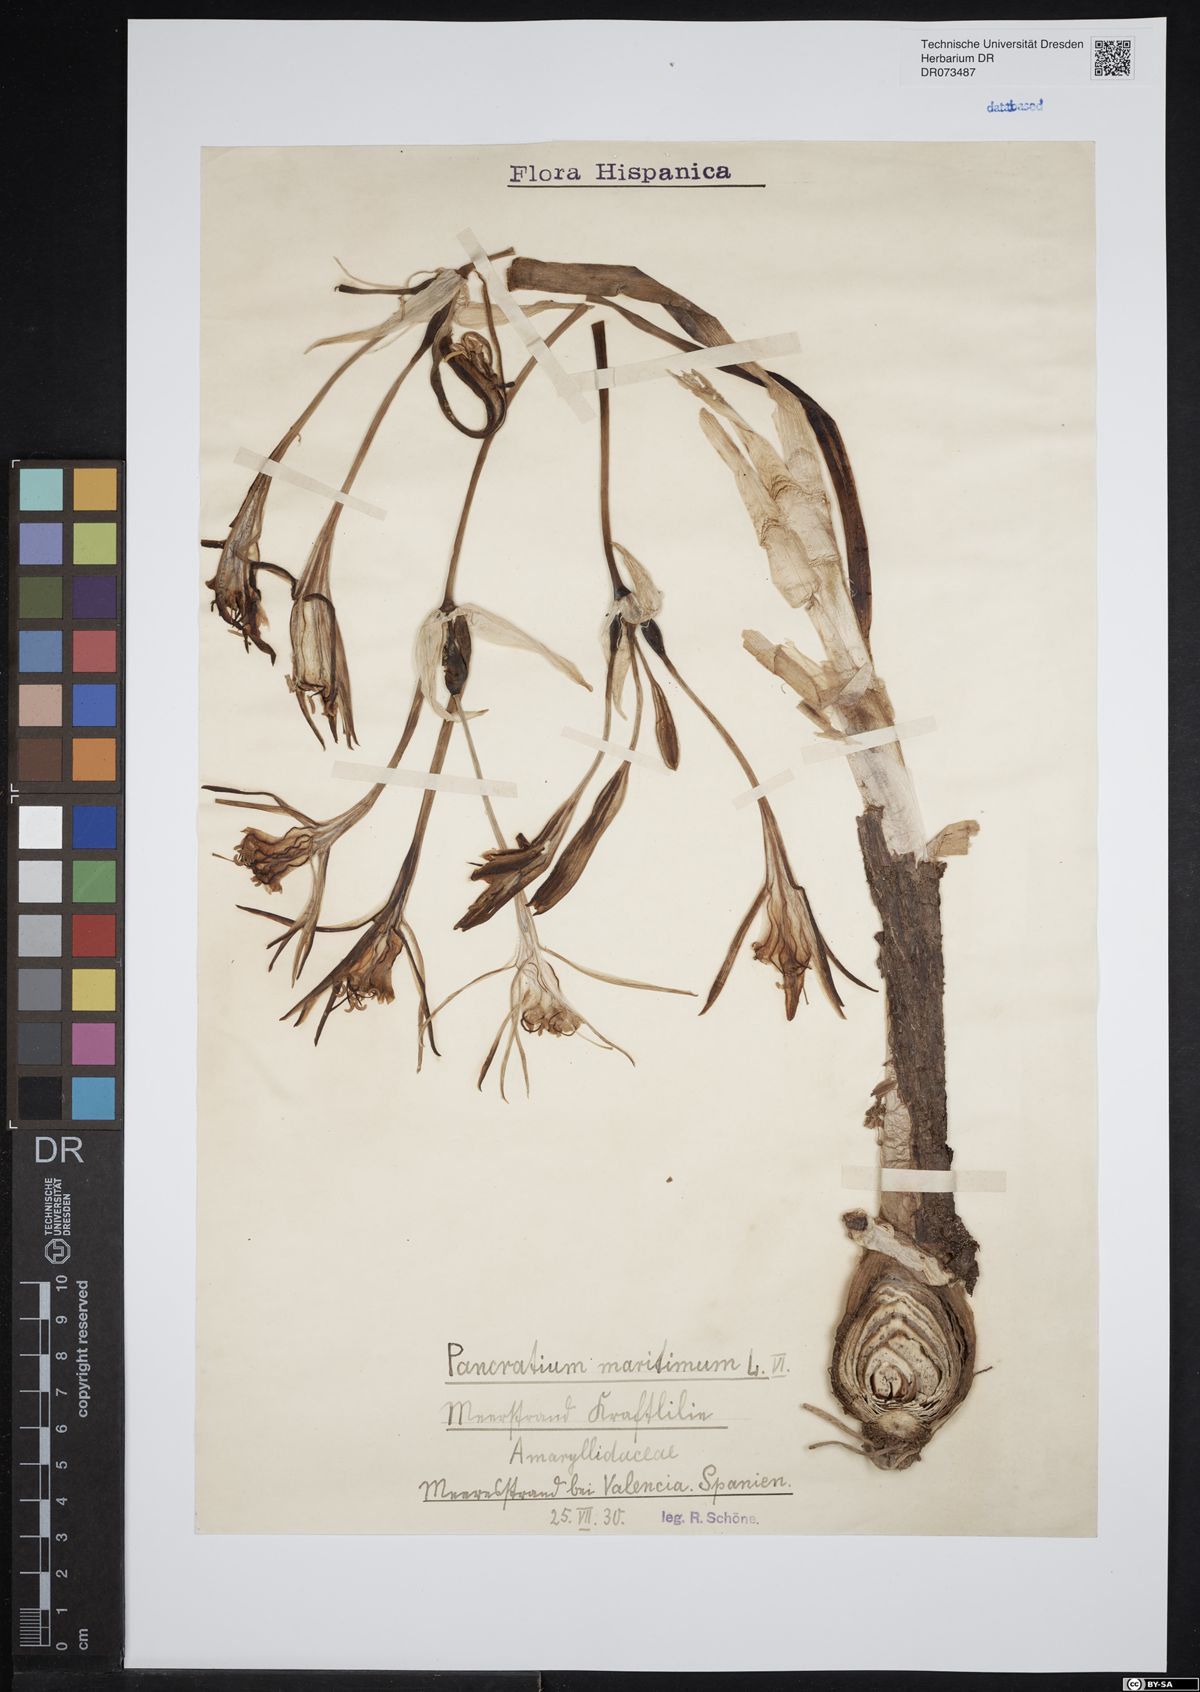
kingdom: Plantae
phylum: Tracheophyta
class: Liliopsida
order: Asparagales
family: Amaryllidaceae
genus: Pancratium
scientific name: Pancratium maritimum
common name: Sea-daffodil
